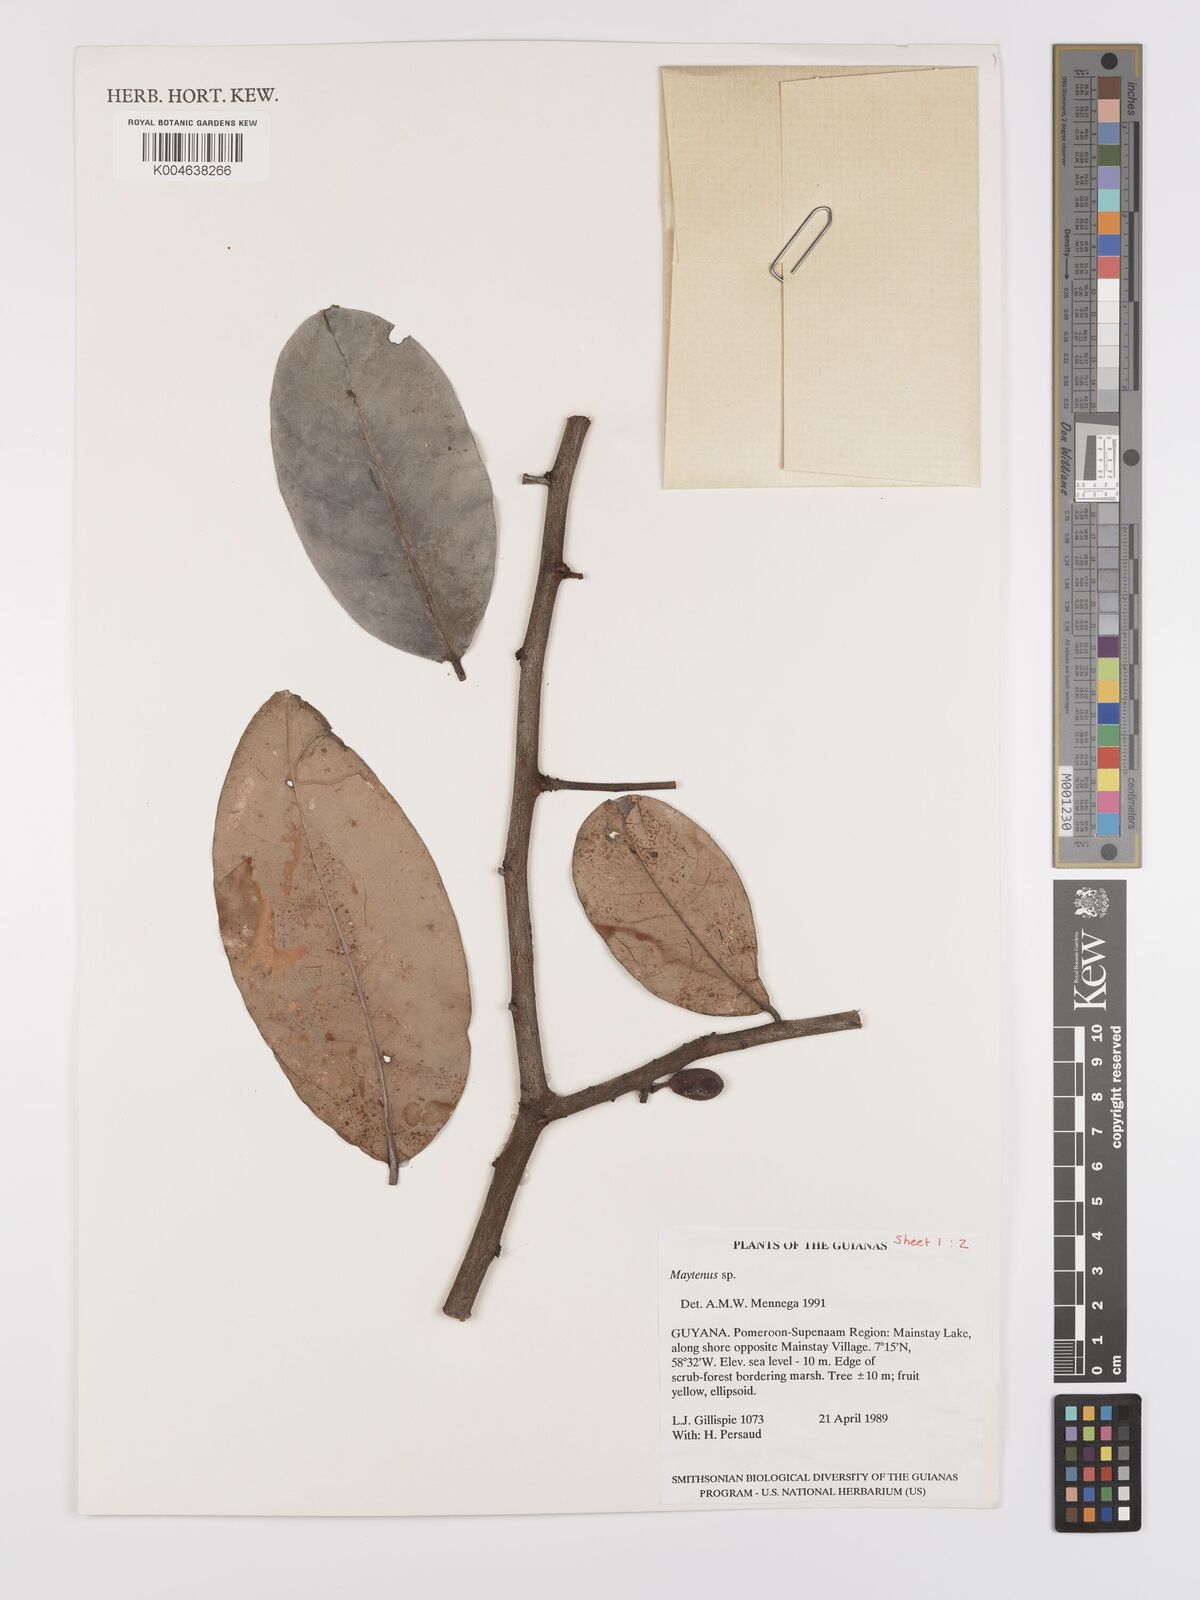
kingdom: Plantae
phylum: Tracheophyta
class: Magnoliopsida
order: Celastrales
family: Celastraceae
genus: Maytenus
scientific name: Maytenus
